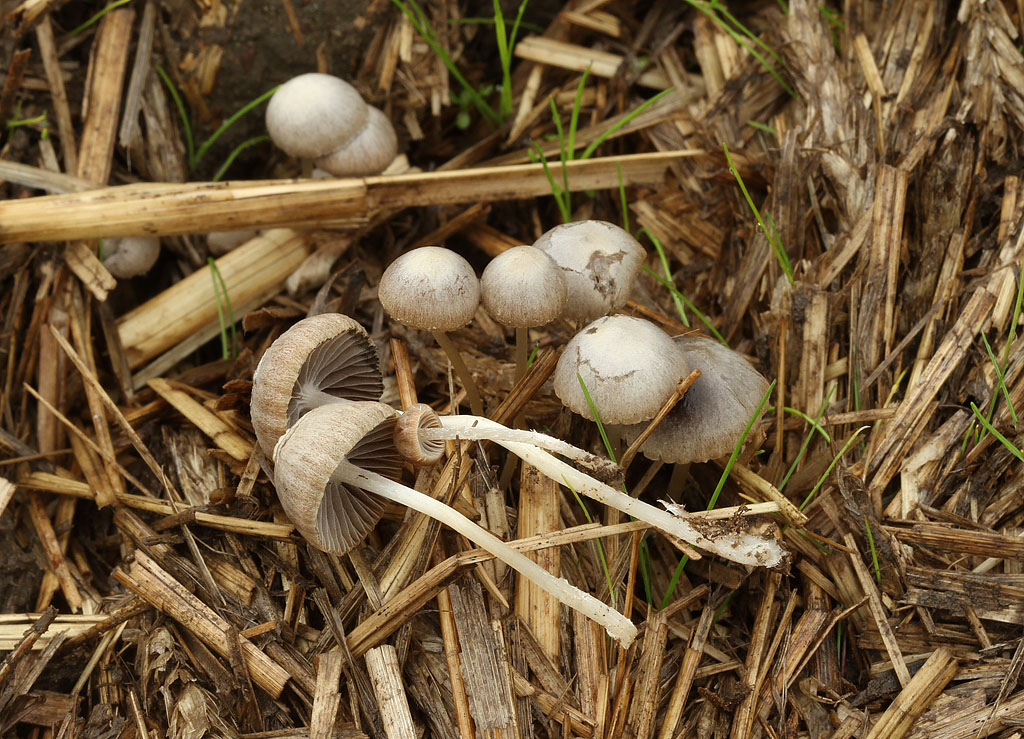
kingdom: Fungi
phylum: Basidiomycota
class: Agaricomycetes
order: Agaricales
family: Psathyrellaceae
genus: Psathyrella
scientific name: Psathyrella potteri
